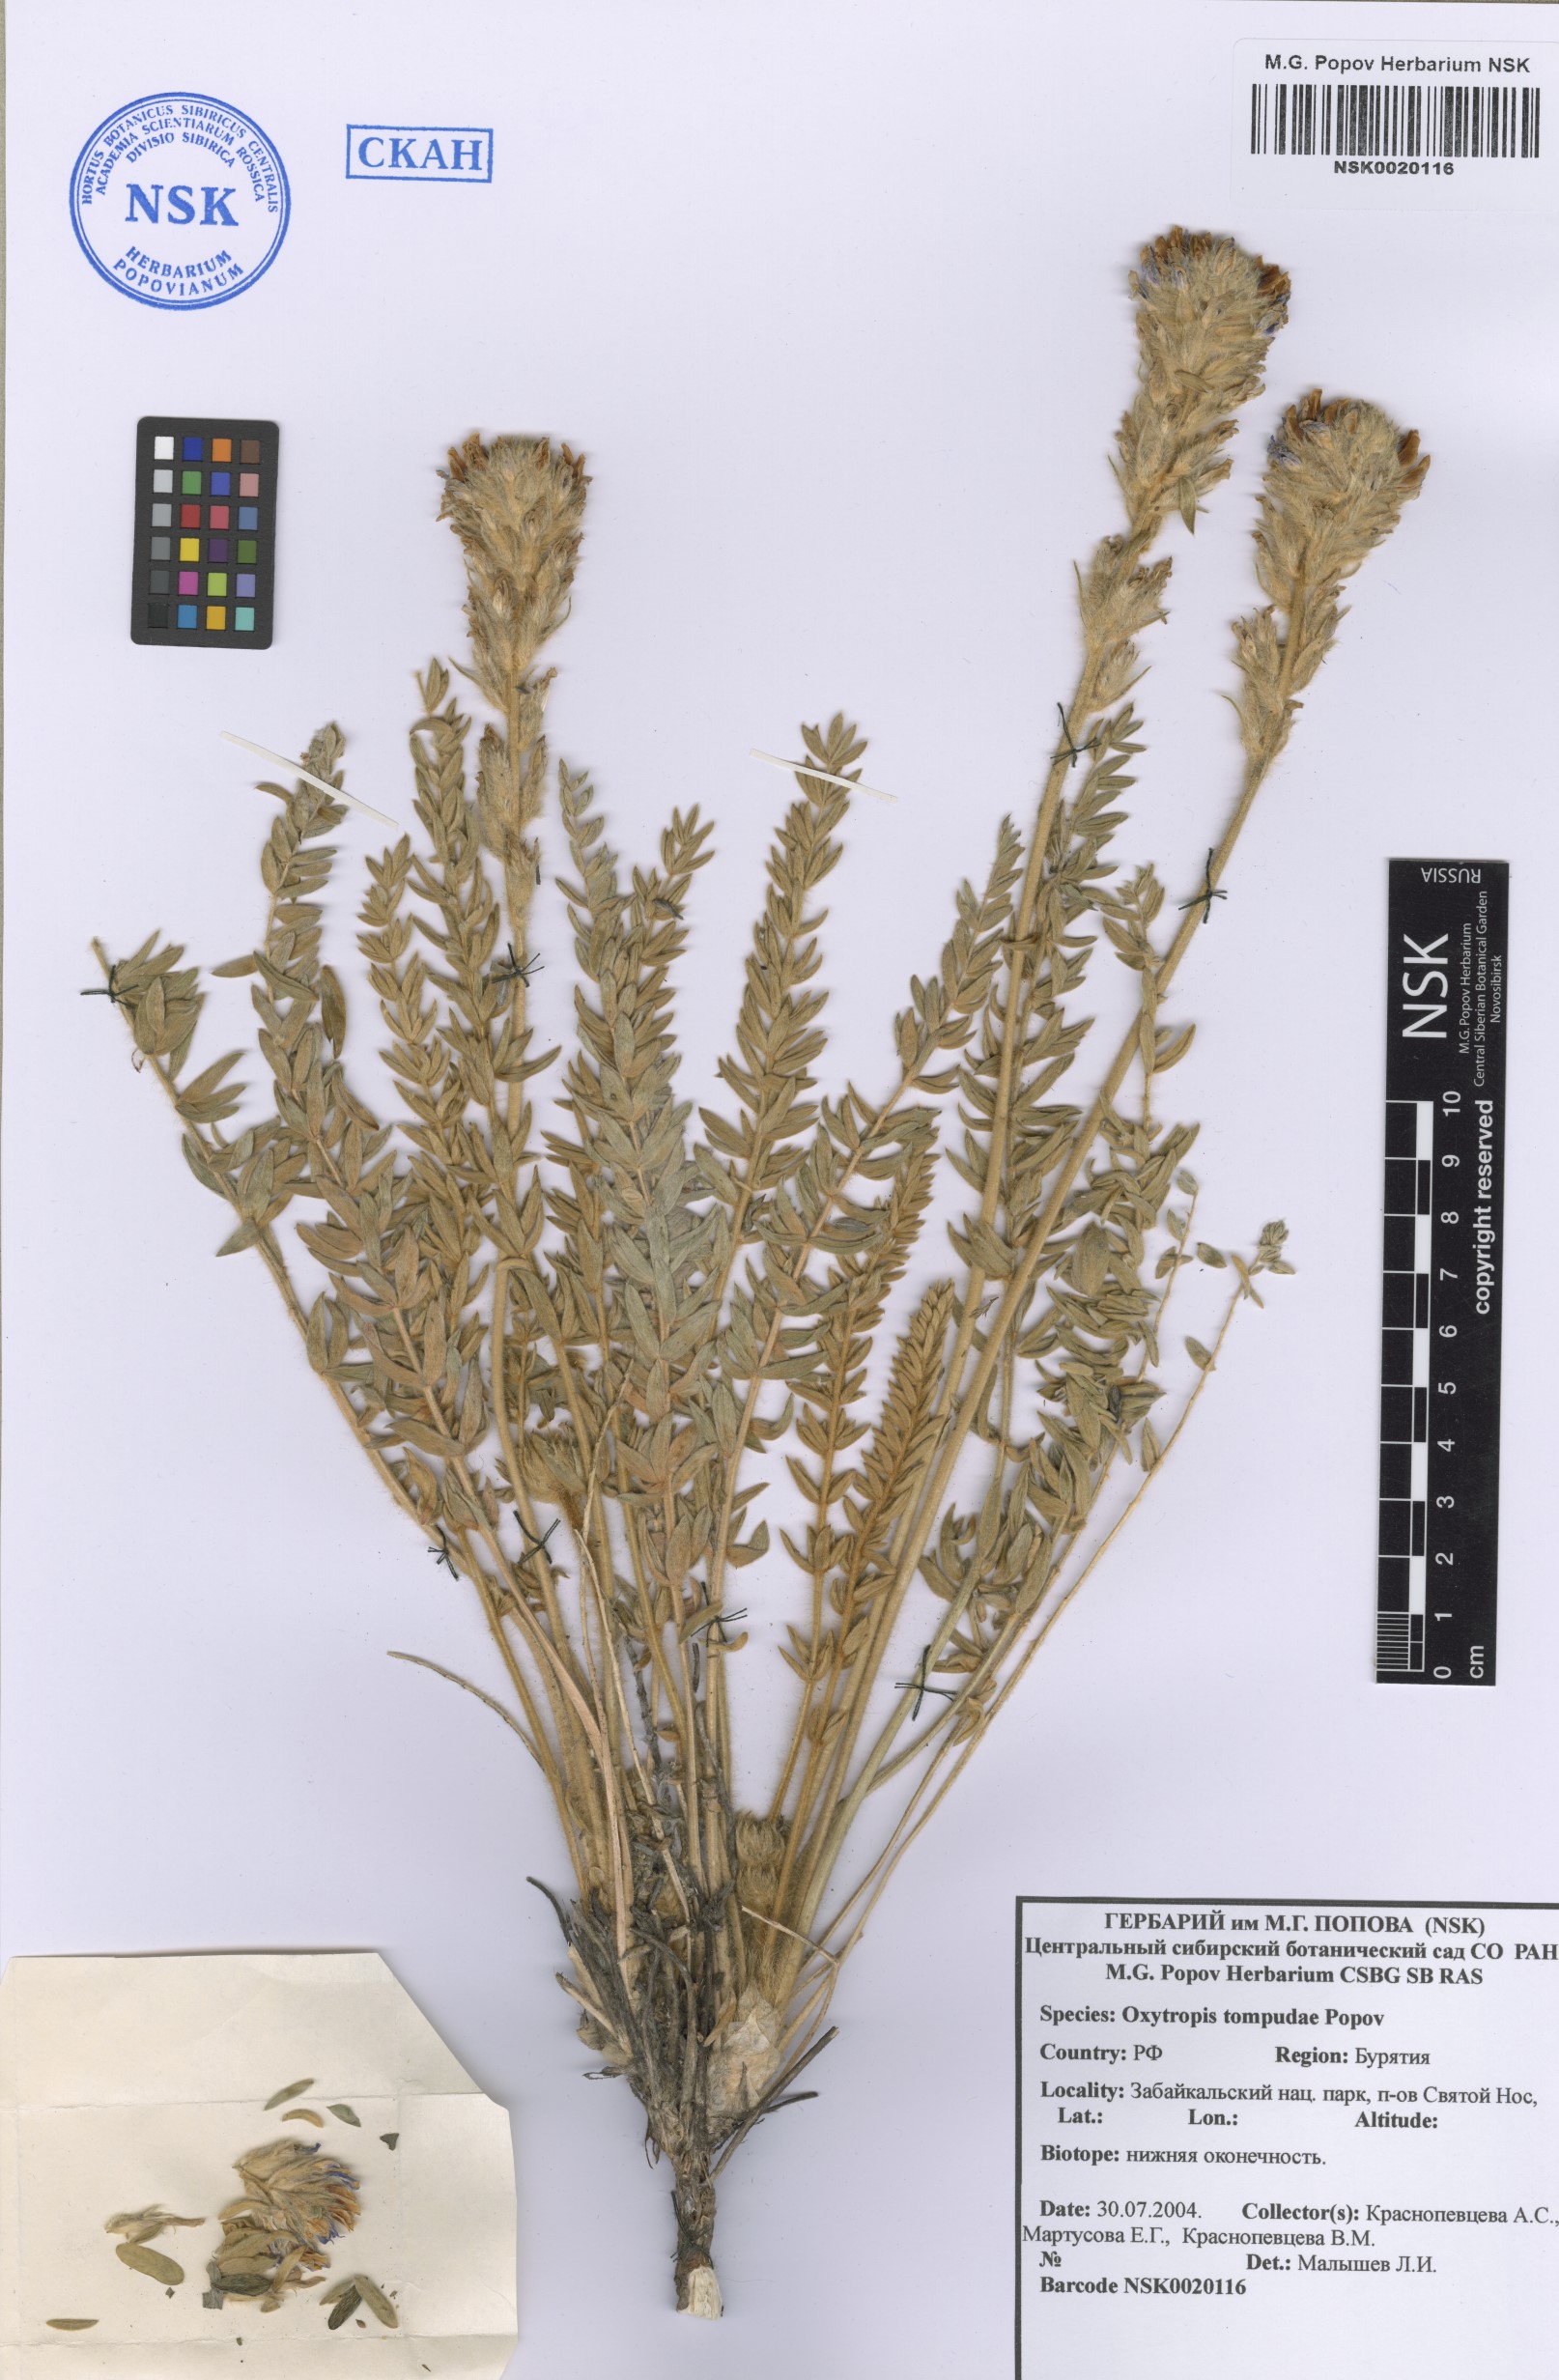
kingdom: Plantae
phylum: Tracheophyta
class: Magnoliopsida
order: Fabales
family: Fabaceae
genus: Oxytropis
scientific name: Oxytropis tompudae
